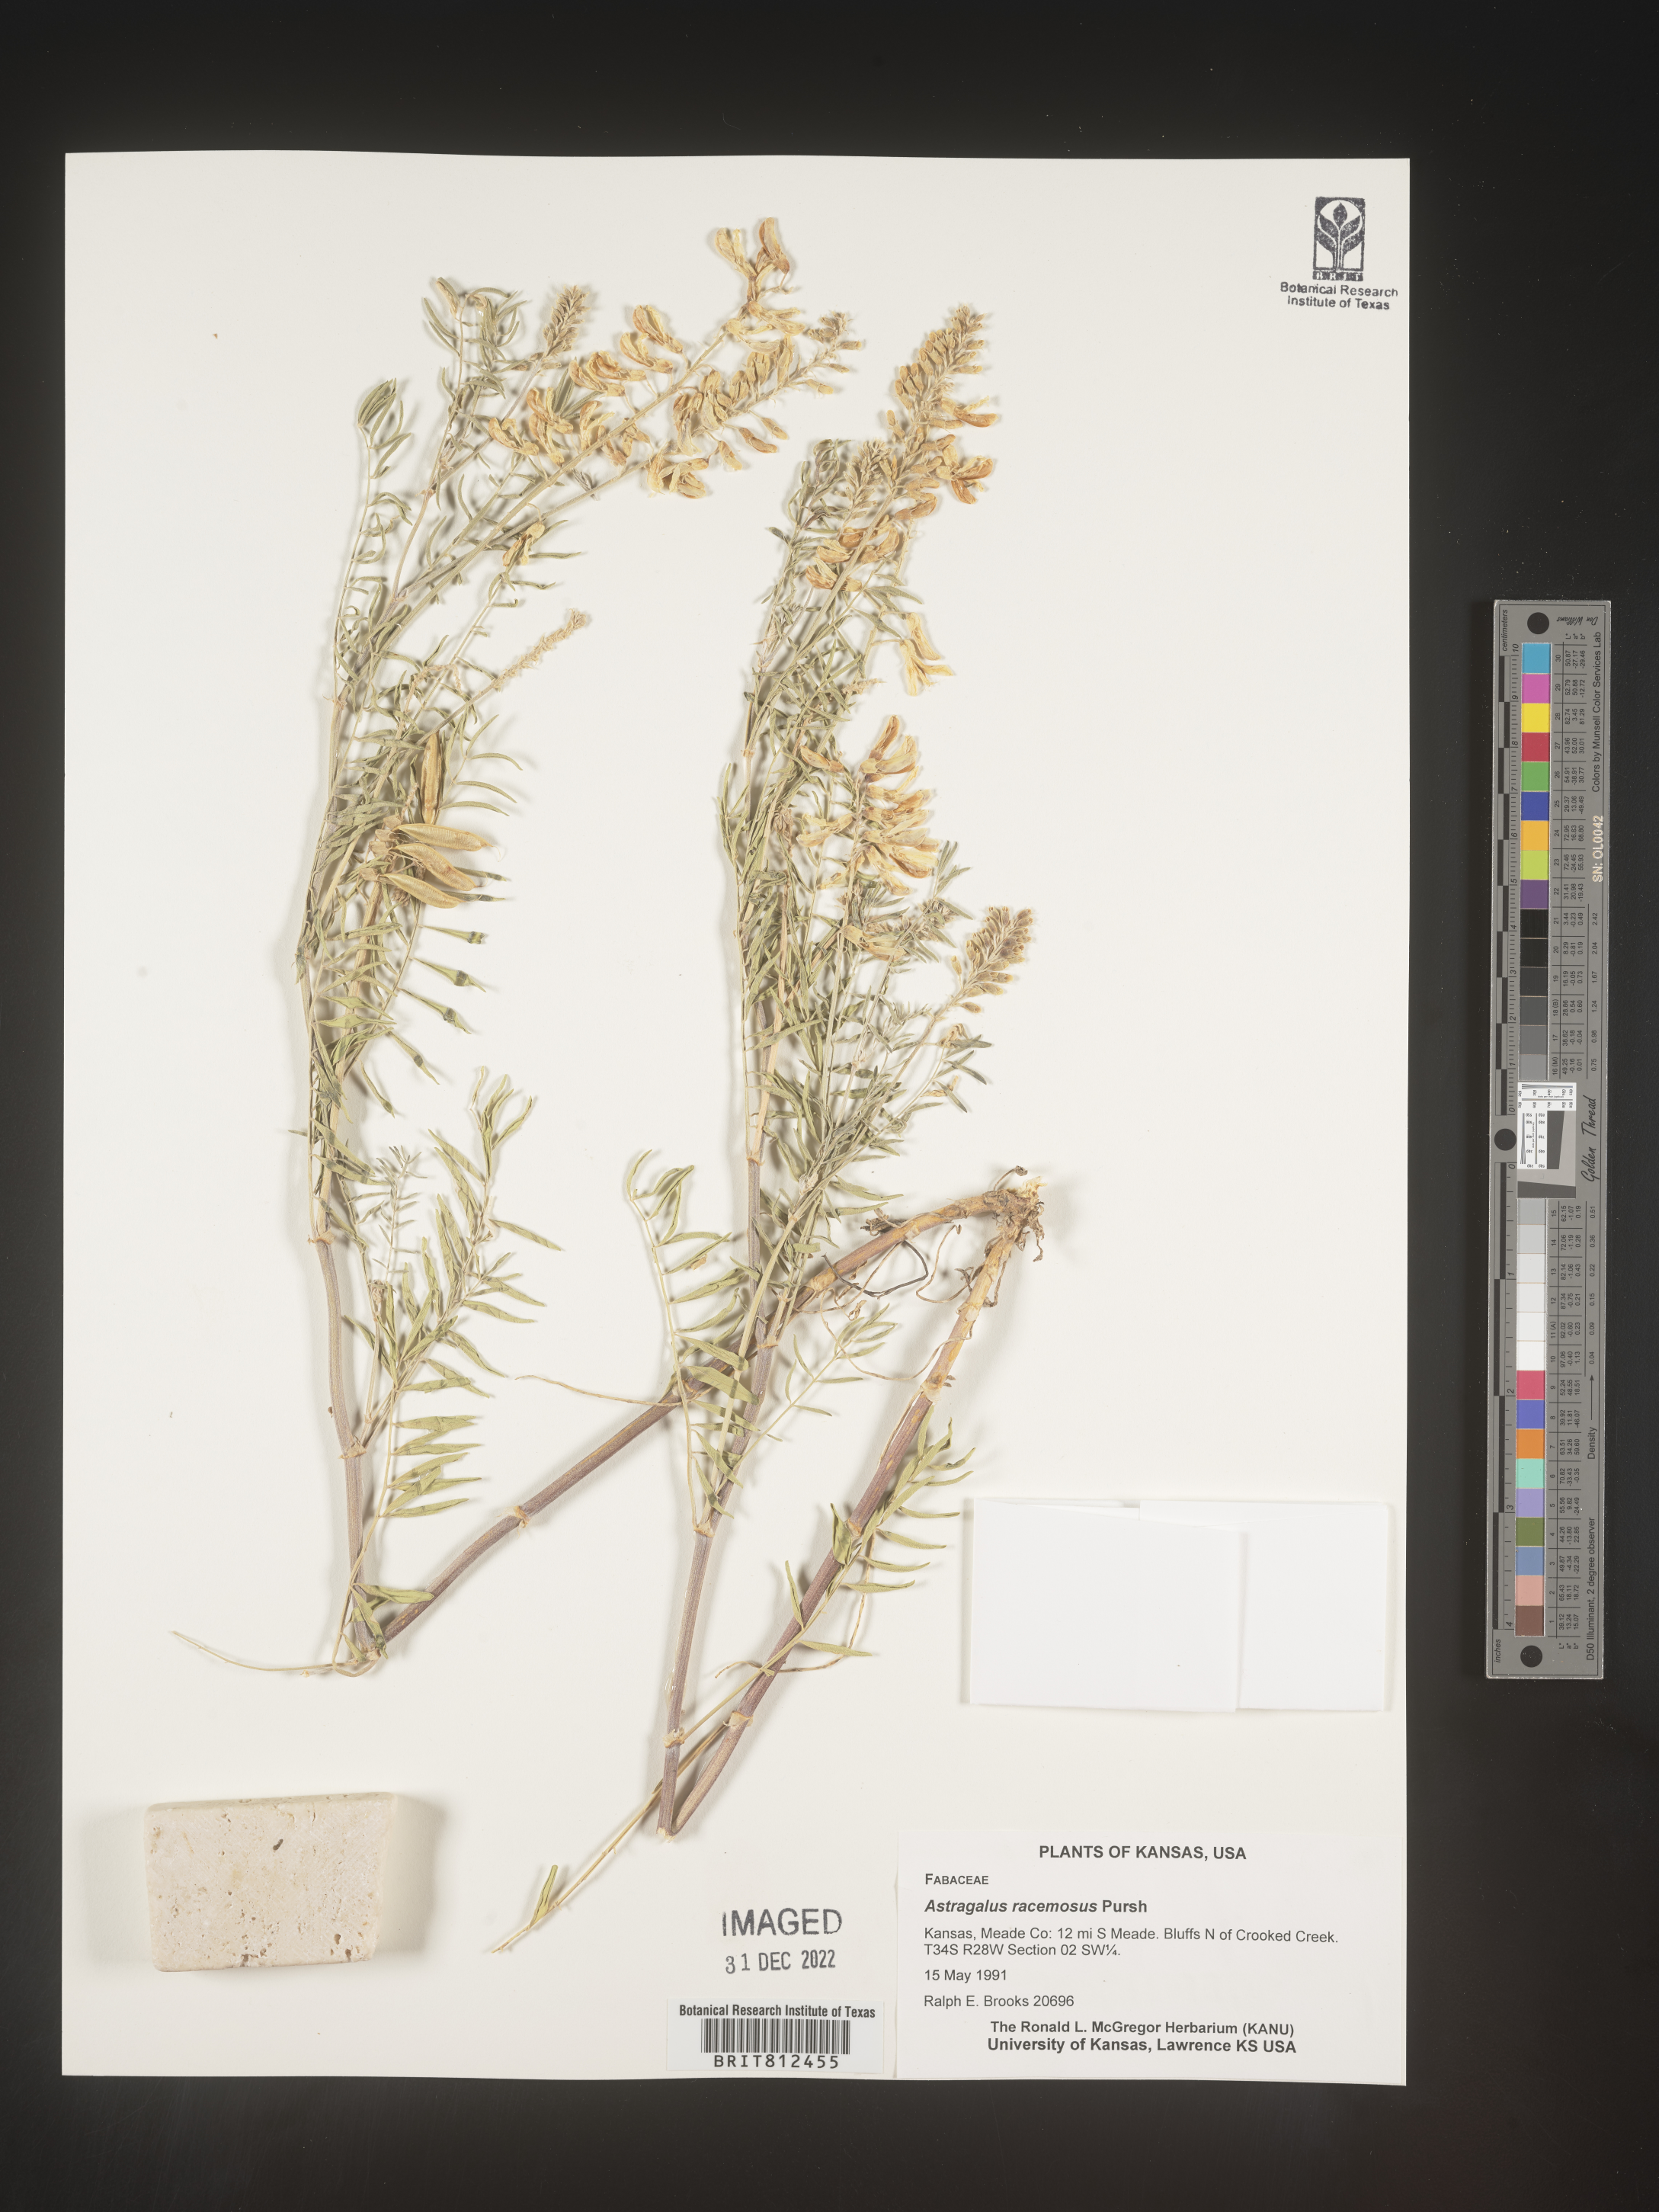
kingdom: Plantae
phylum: Tracheophyta
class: Magnoliopsida
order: Fabales
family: Fabaceae
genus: Astragalus
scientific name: Astragalus racemosus
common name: Alkali milk-vetch
